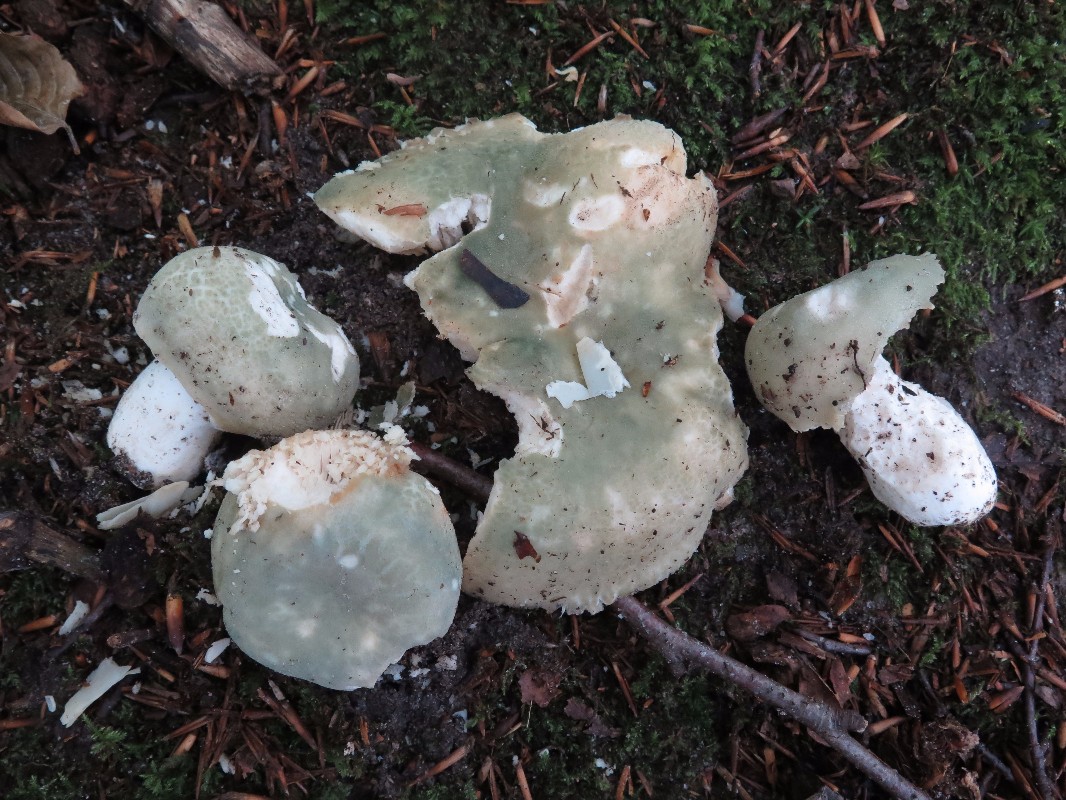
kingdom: Fungi
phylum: Basidiomycota
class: Agaricomycetes
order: Russulales
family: Russulaceae
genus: Russula
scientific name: Russula virescens
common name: spanskgrøn skørhat
